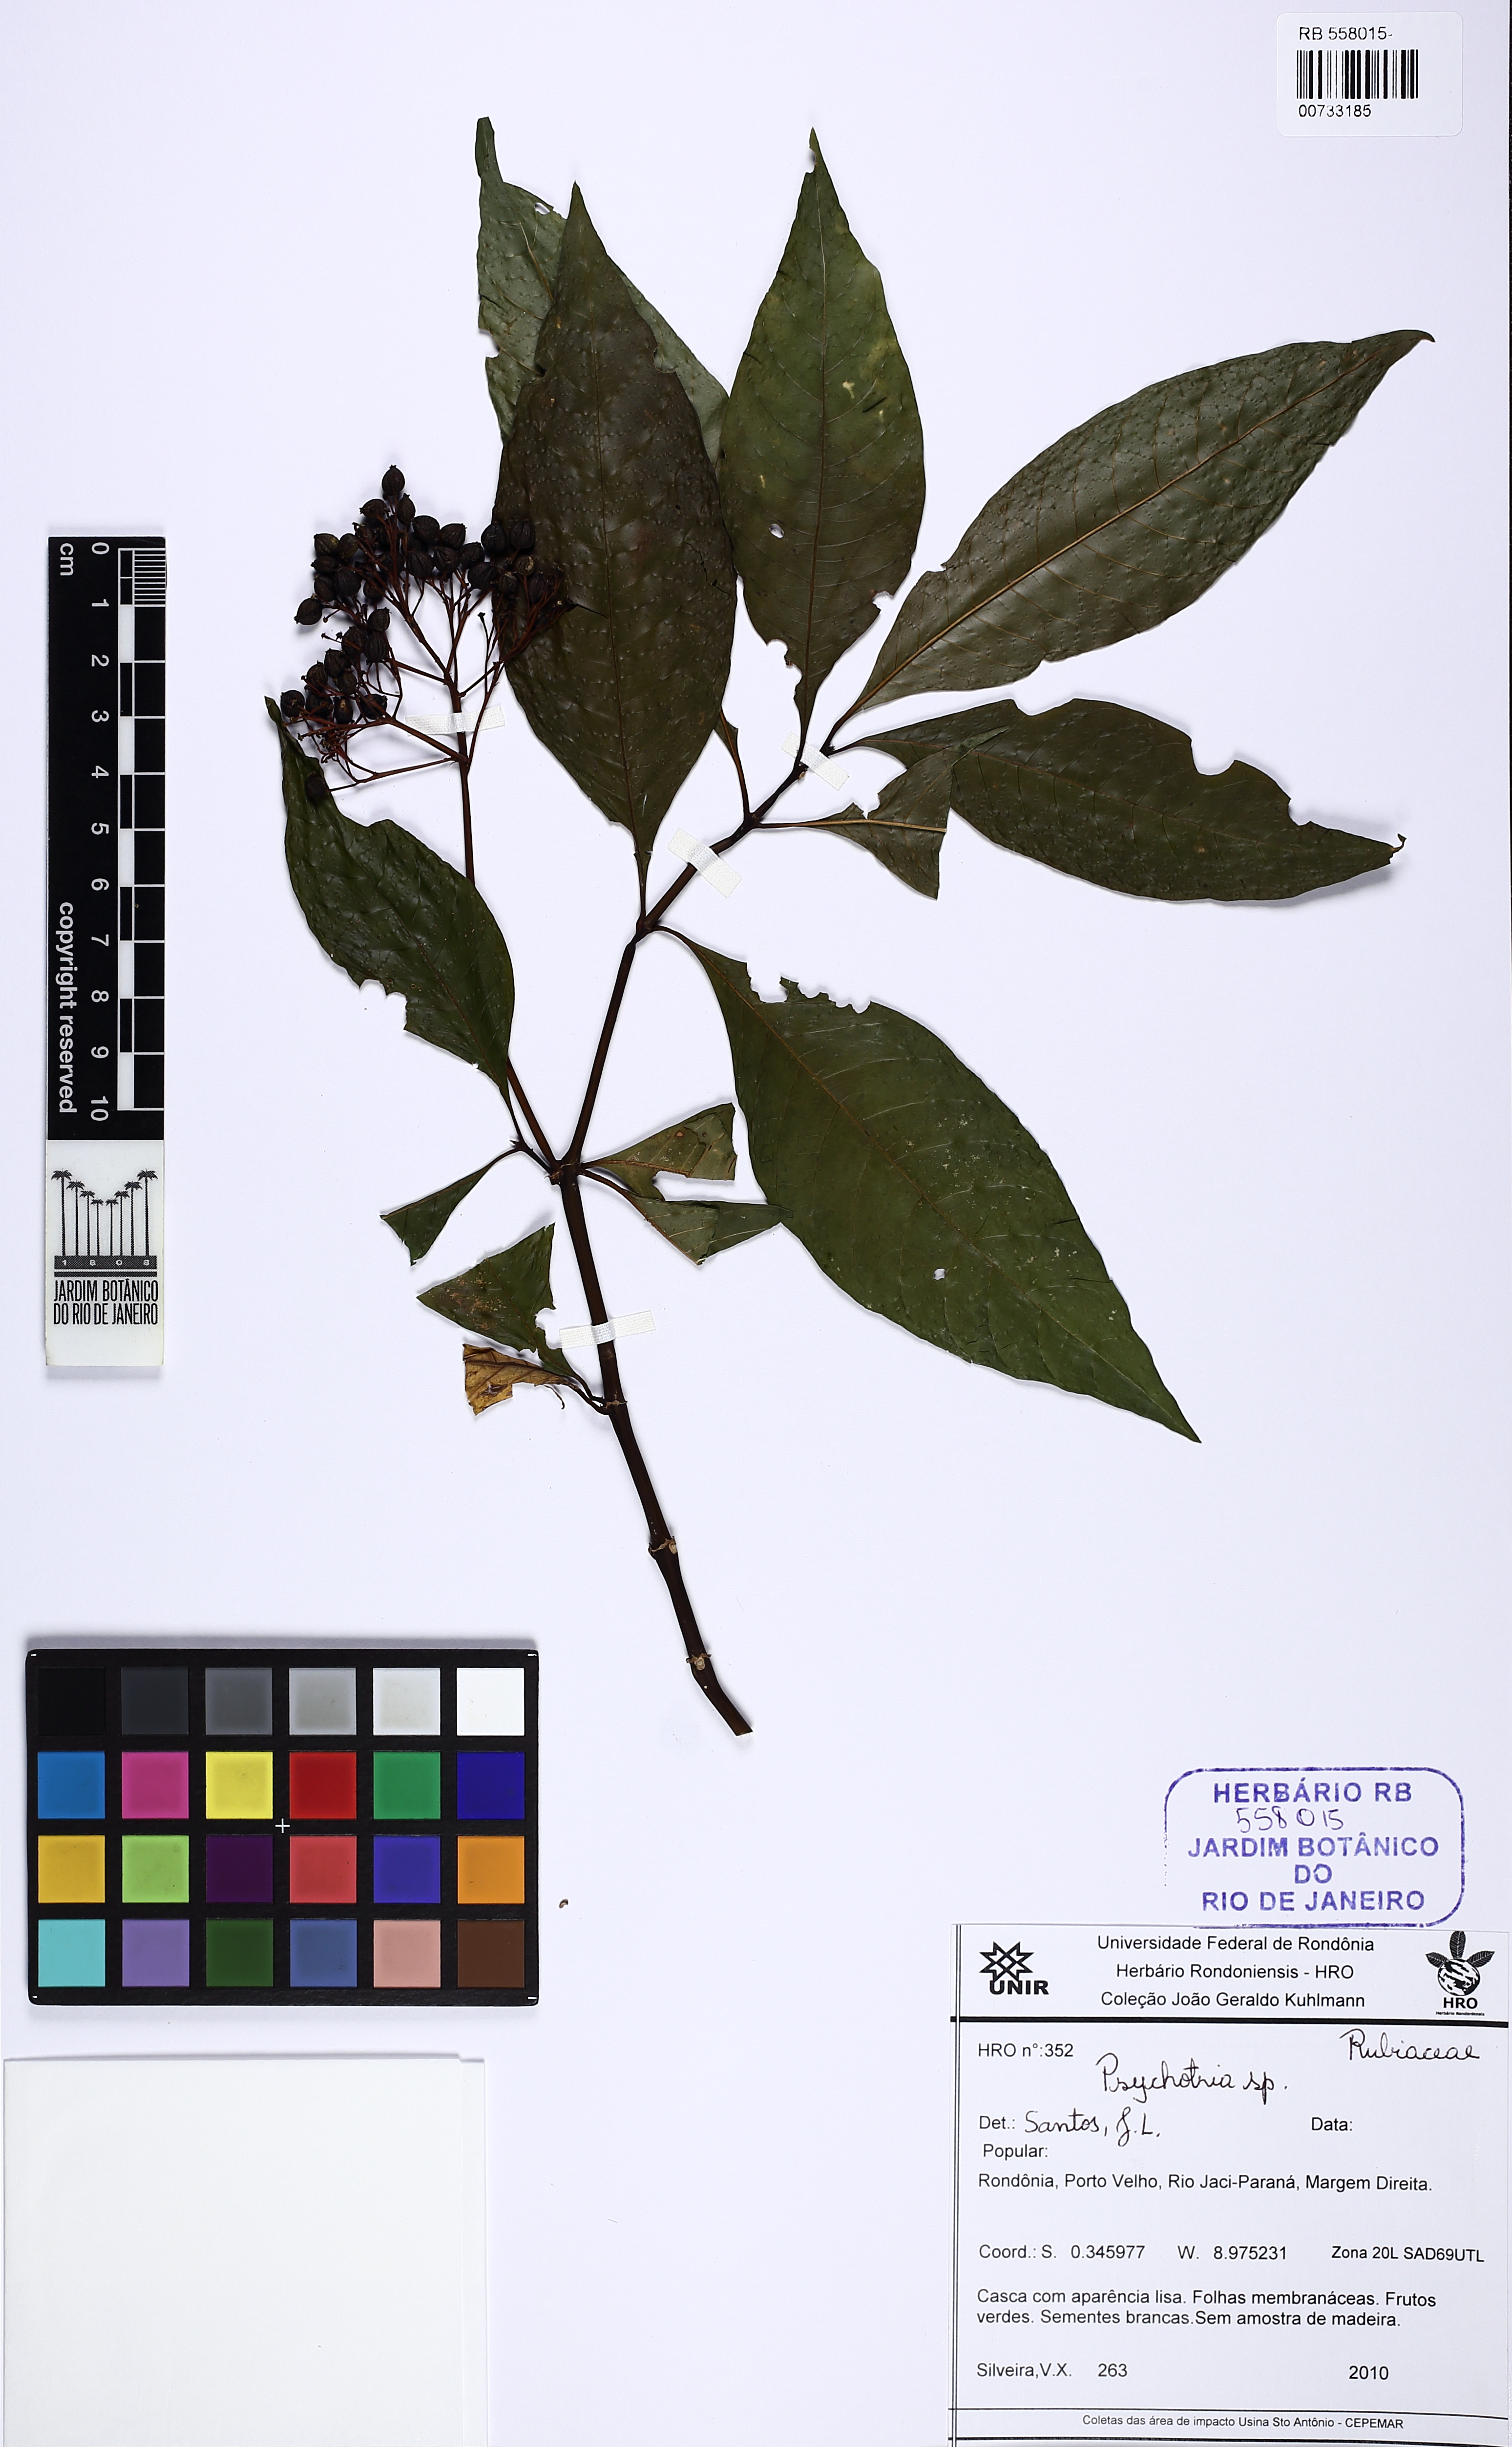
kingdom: Plantae
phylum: Tracheophyta
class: Magnoliopsida
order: Gentianales
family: Rubiaceae
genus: Palicourea
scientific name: Palicourea
